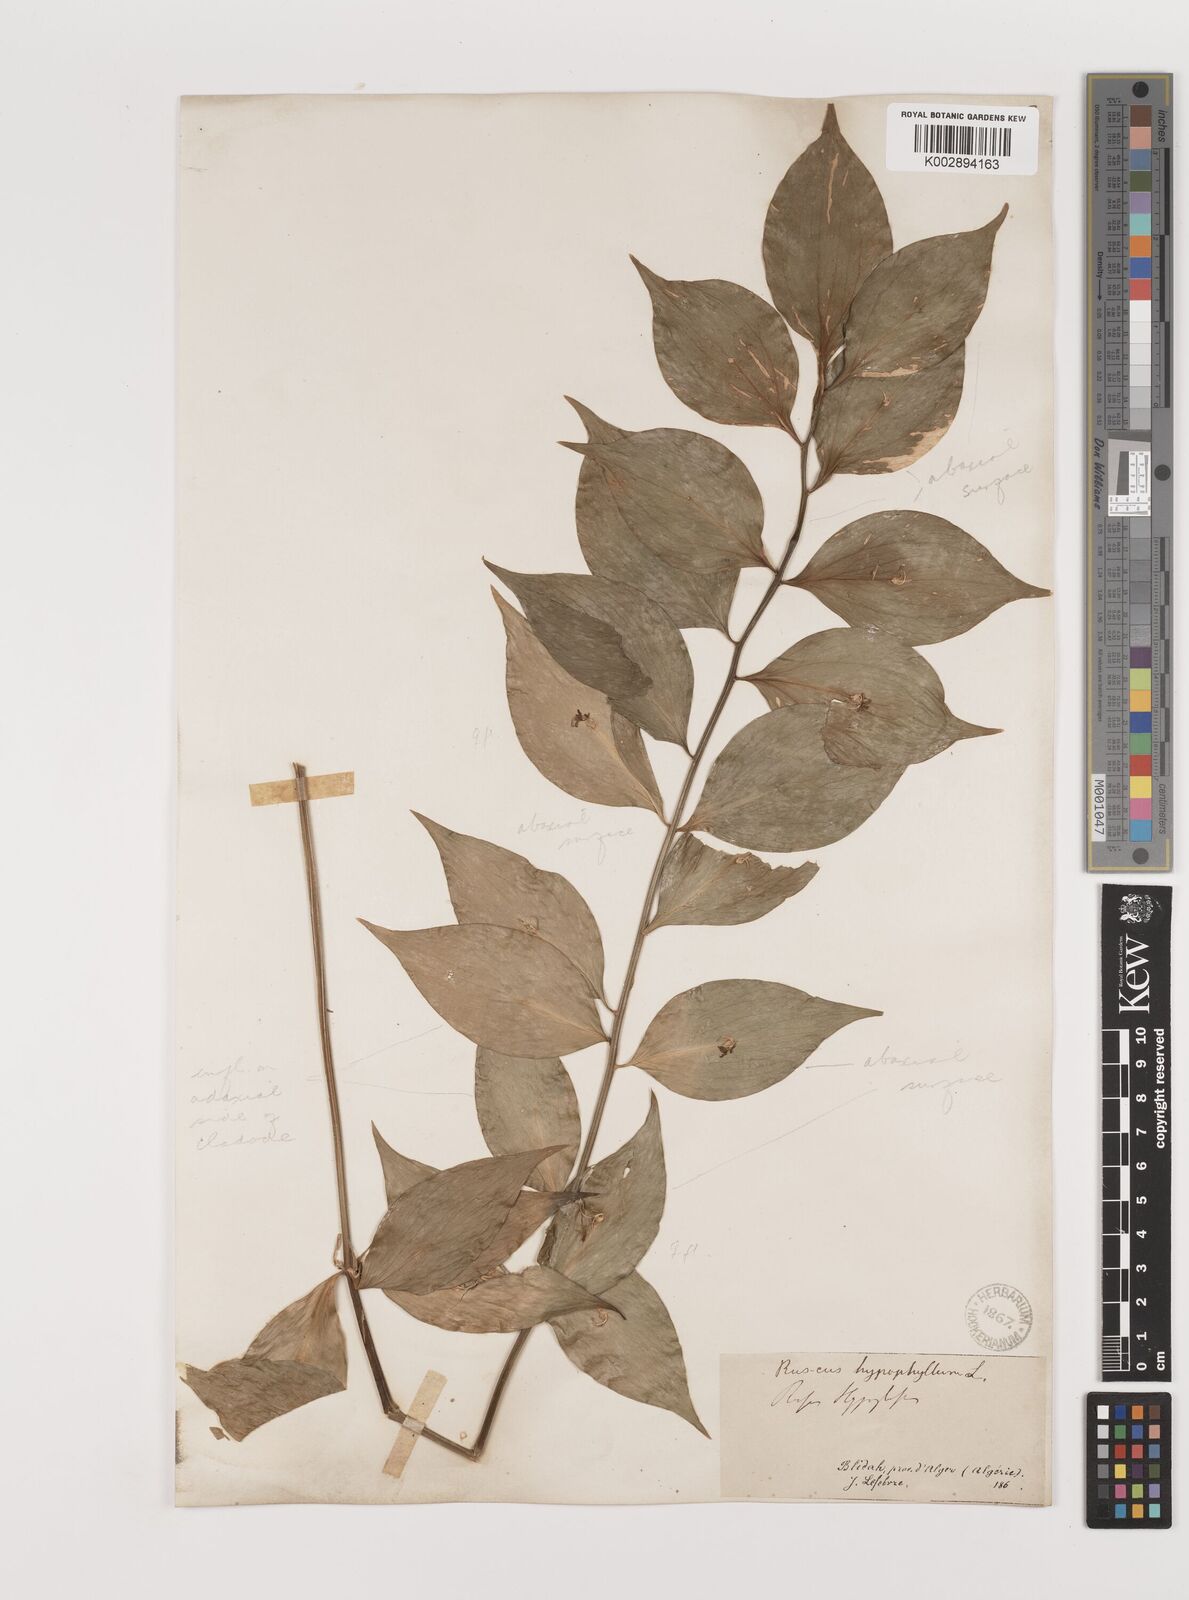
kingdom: Plantae
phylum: Tracheophyta
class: Liliopsida
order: Asparagales
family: Asparagaceae
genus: Ruscus
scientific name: Ruscus hypophyllum
